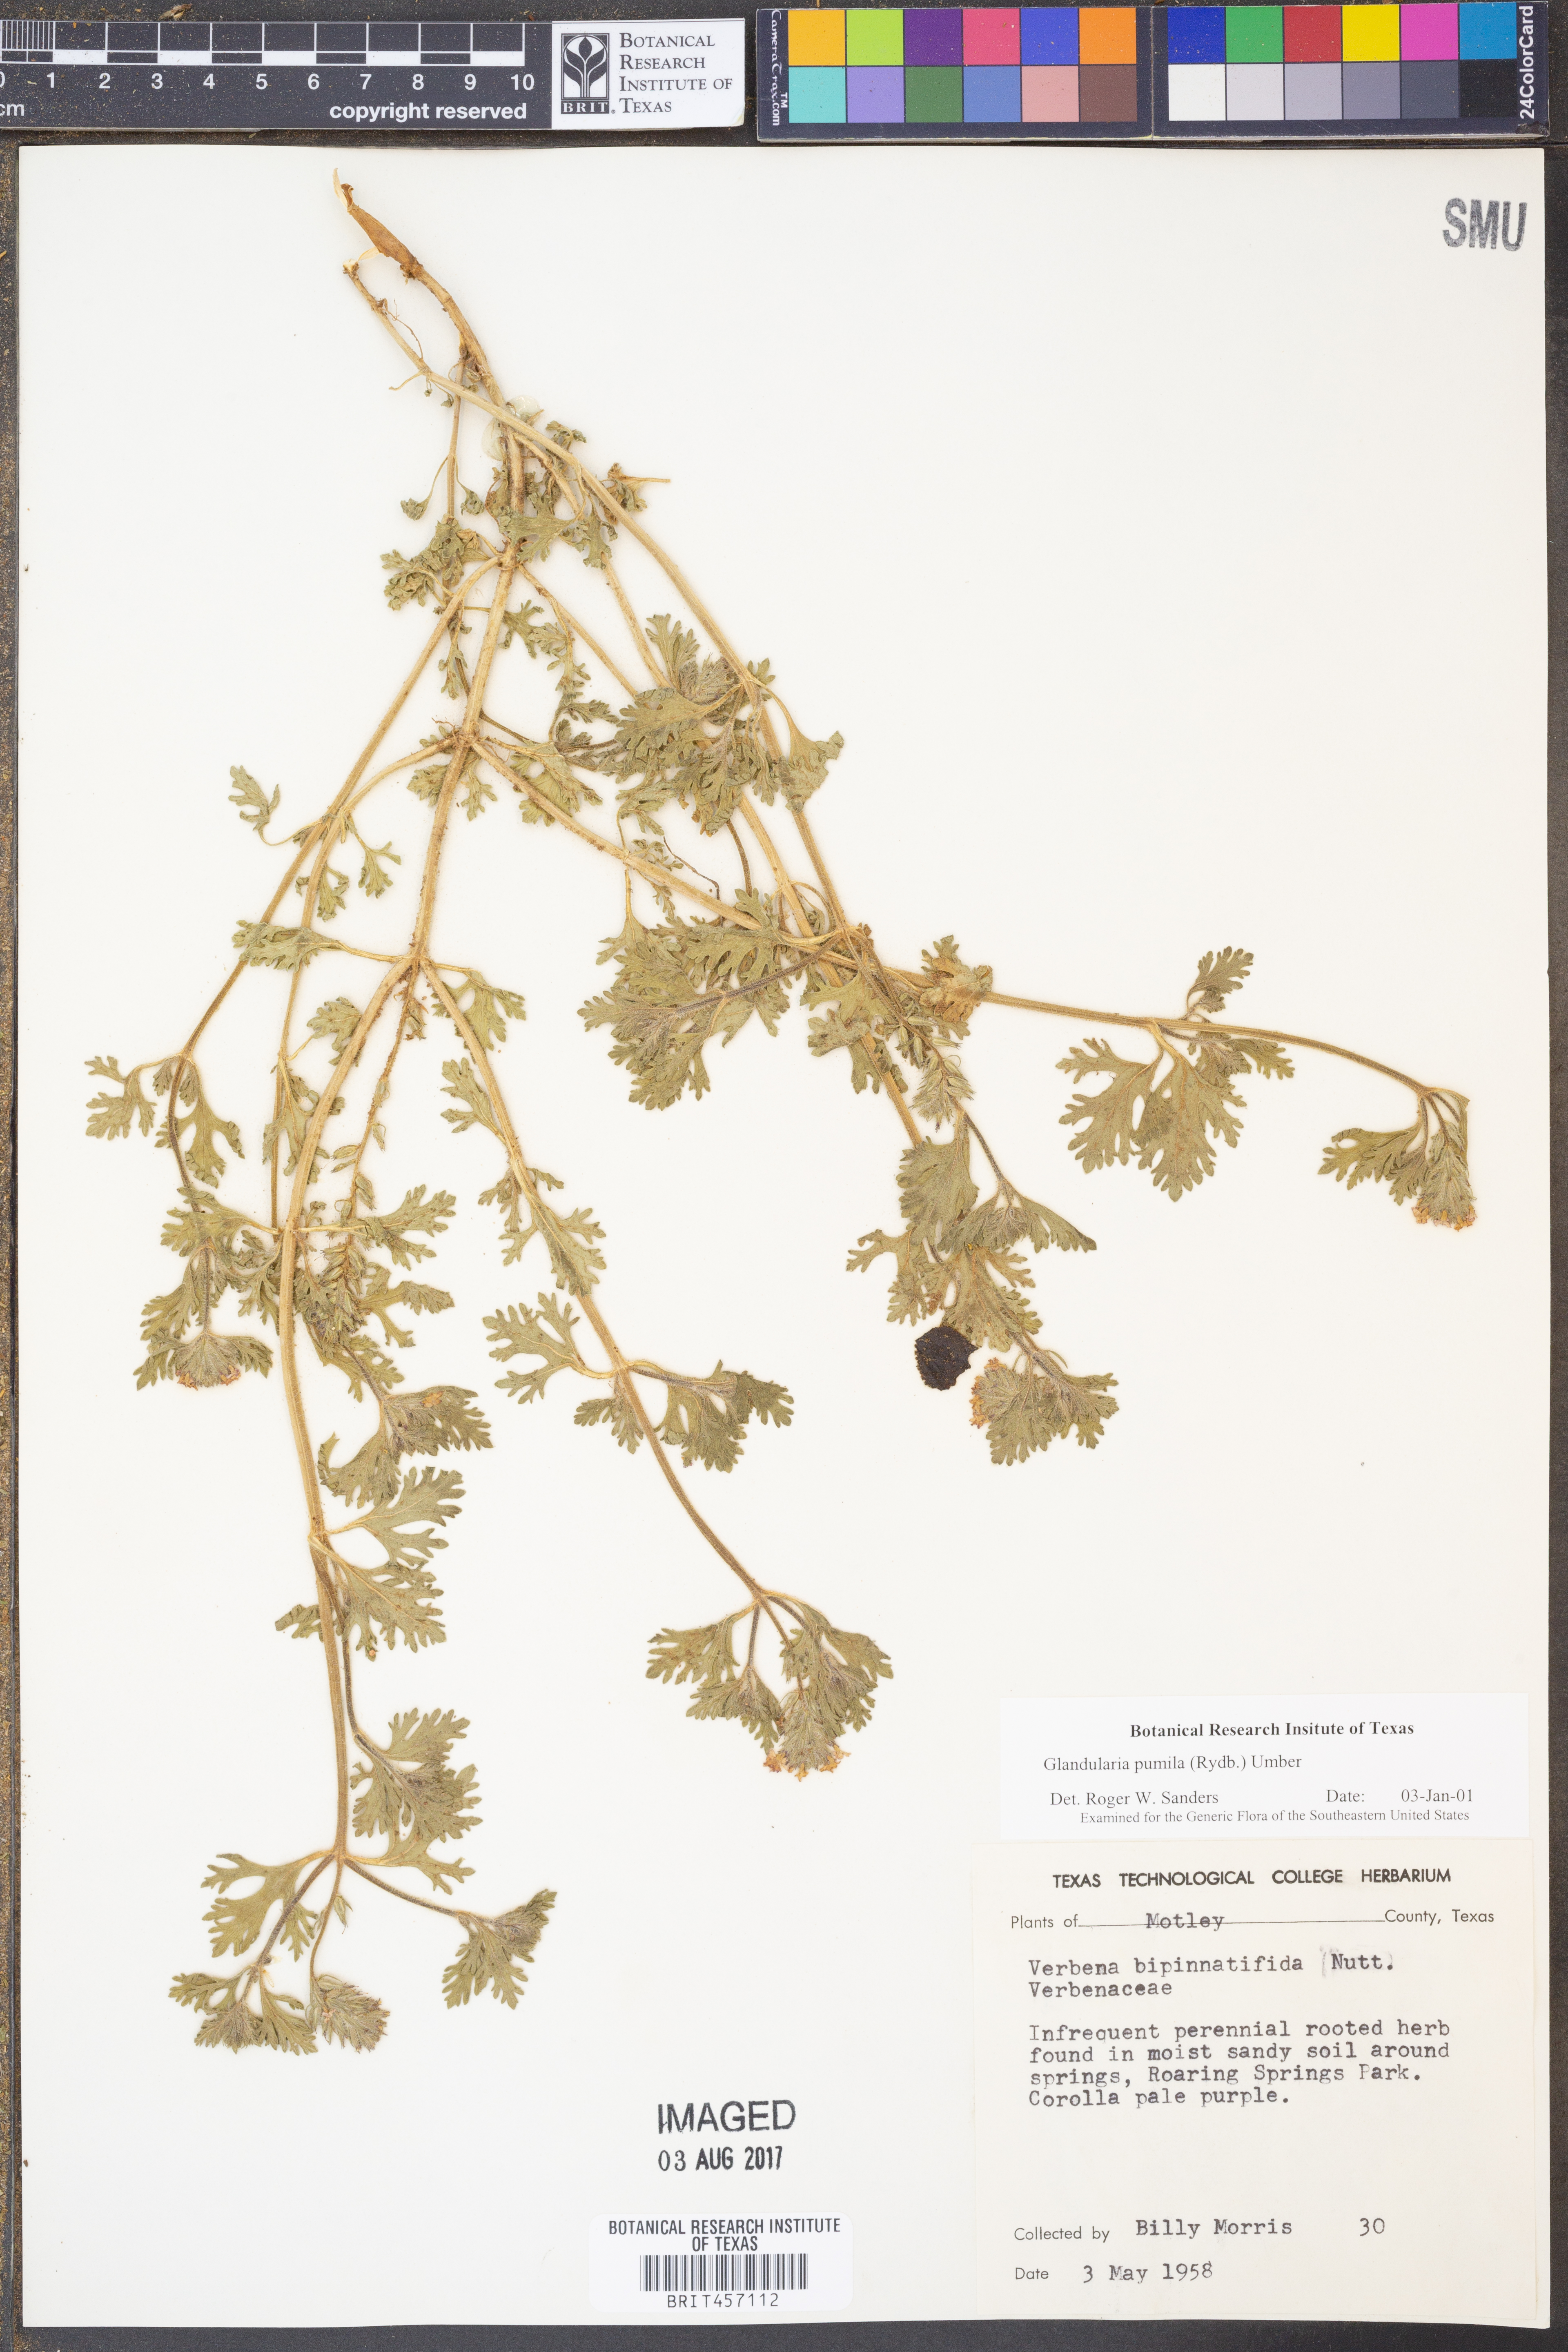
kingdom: Plantae
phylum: Tracheophyta
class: Magnoliopsida
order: Lamiales
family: Verbenaceae
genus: Verbena
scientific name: Verbena pumila
